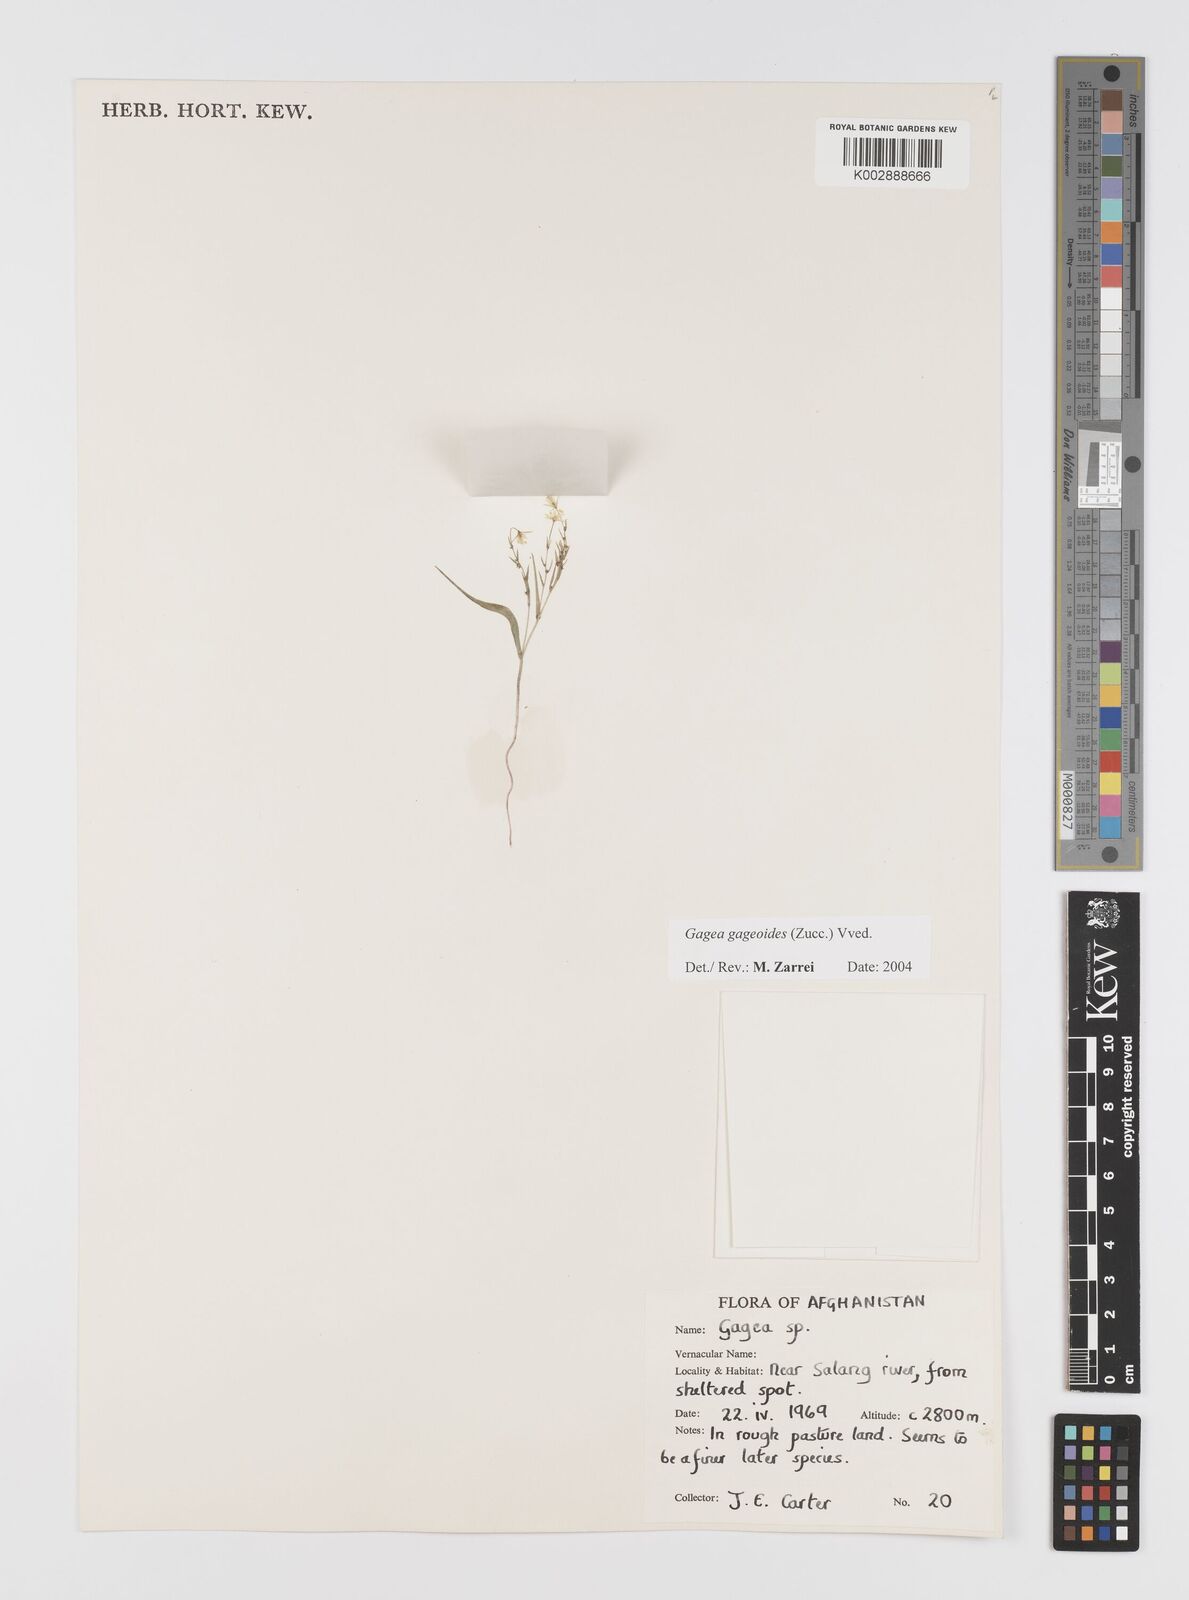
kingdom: Plantae
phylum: Tracheophyta
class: Liliopsida
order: Liliales
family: Liliaceae
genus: Gagea
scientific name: Gagea gageoides
